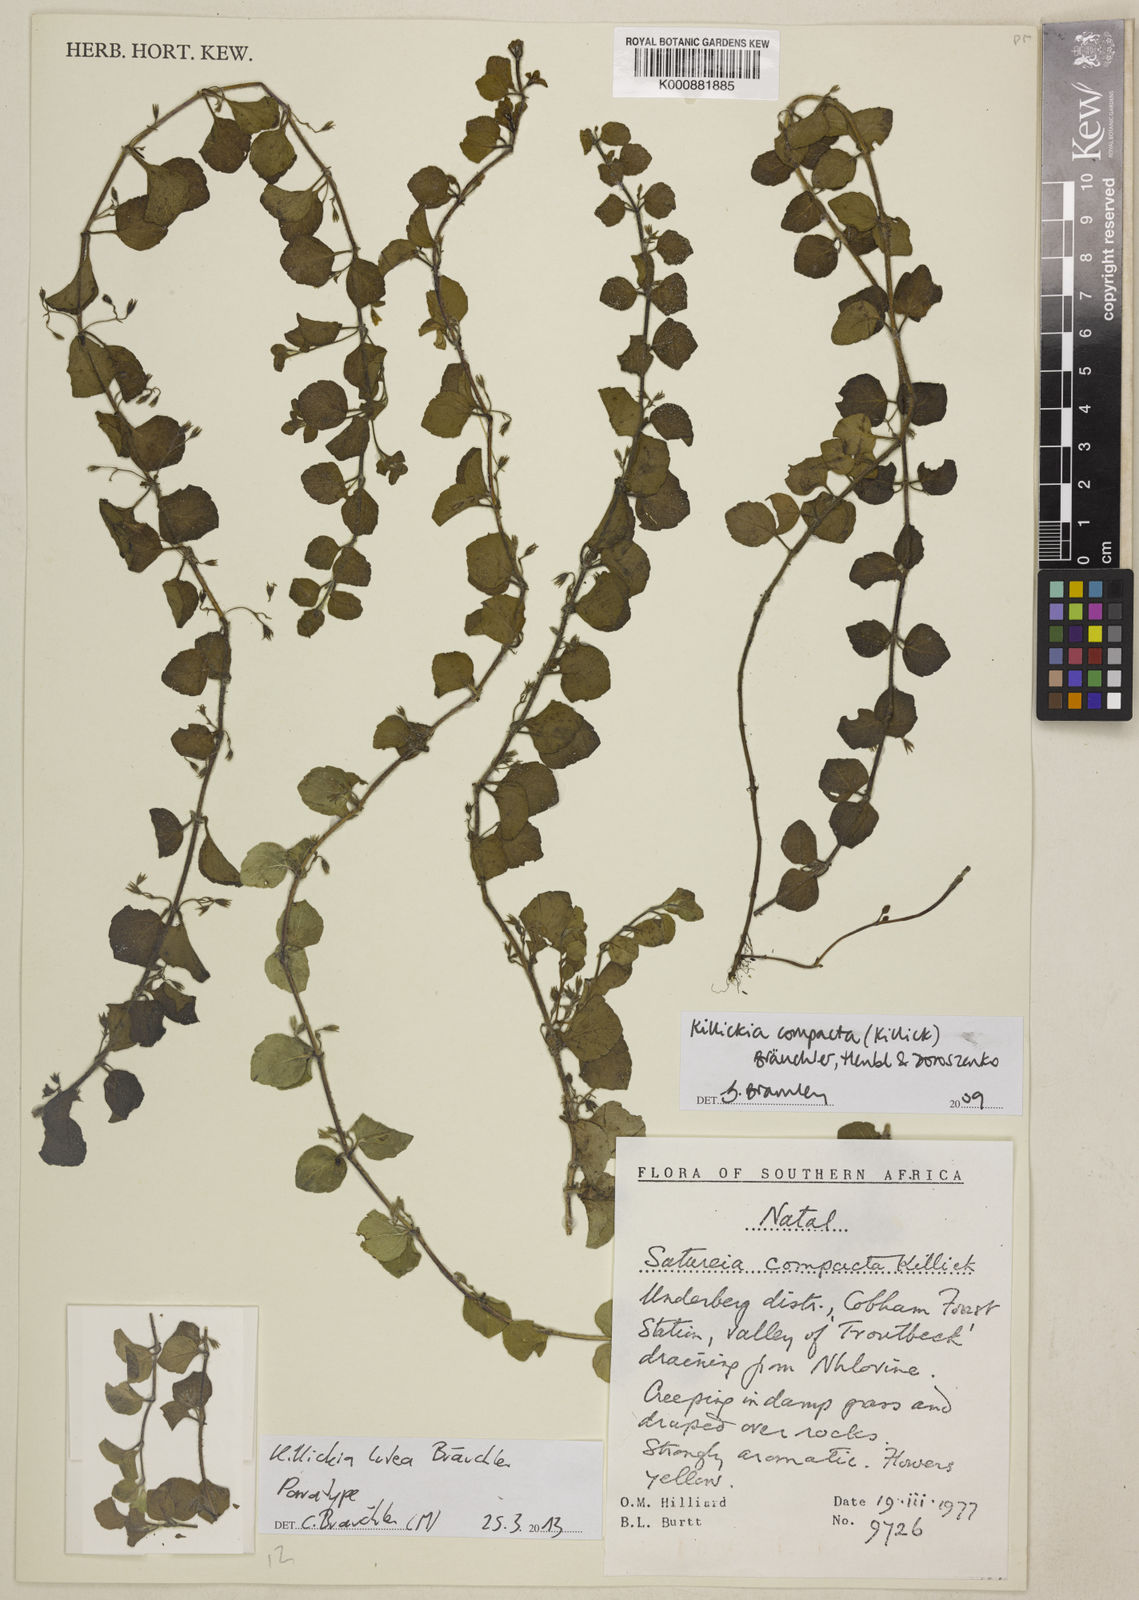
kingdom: Plantae
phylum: Tracheophyta
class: Magnoliopsida
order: Lamiales
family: Lamiaceae
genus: Killickia
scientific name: Killickia
